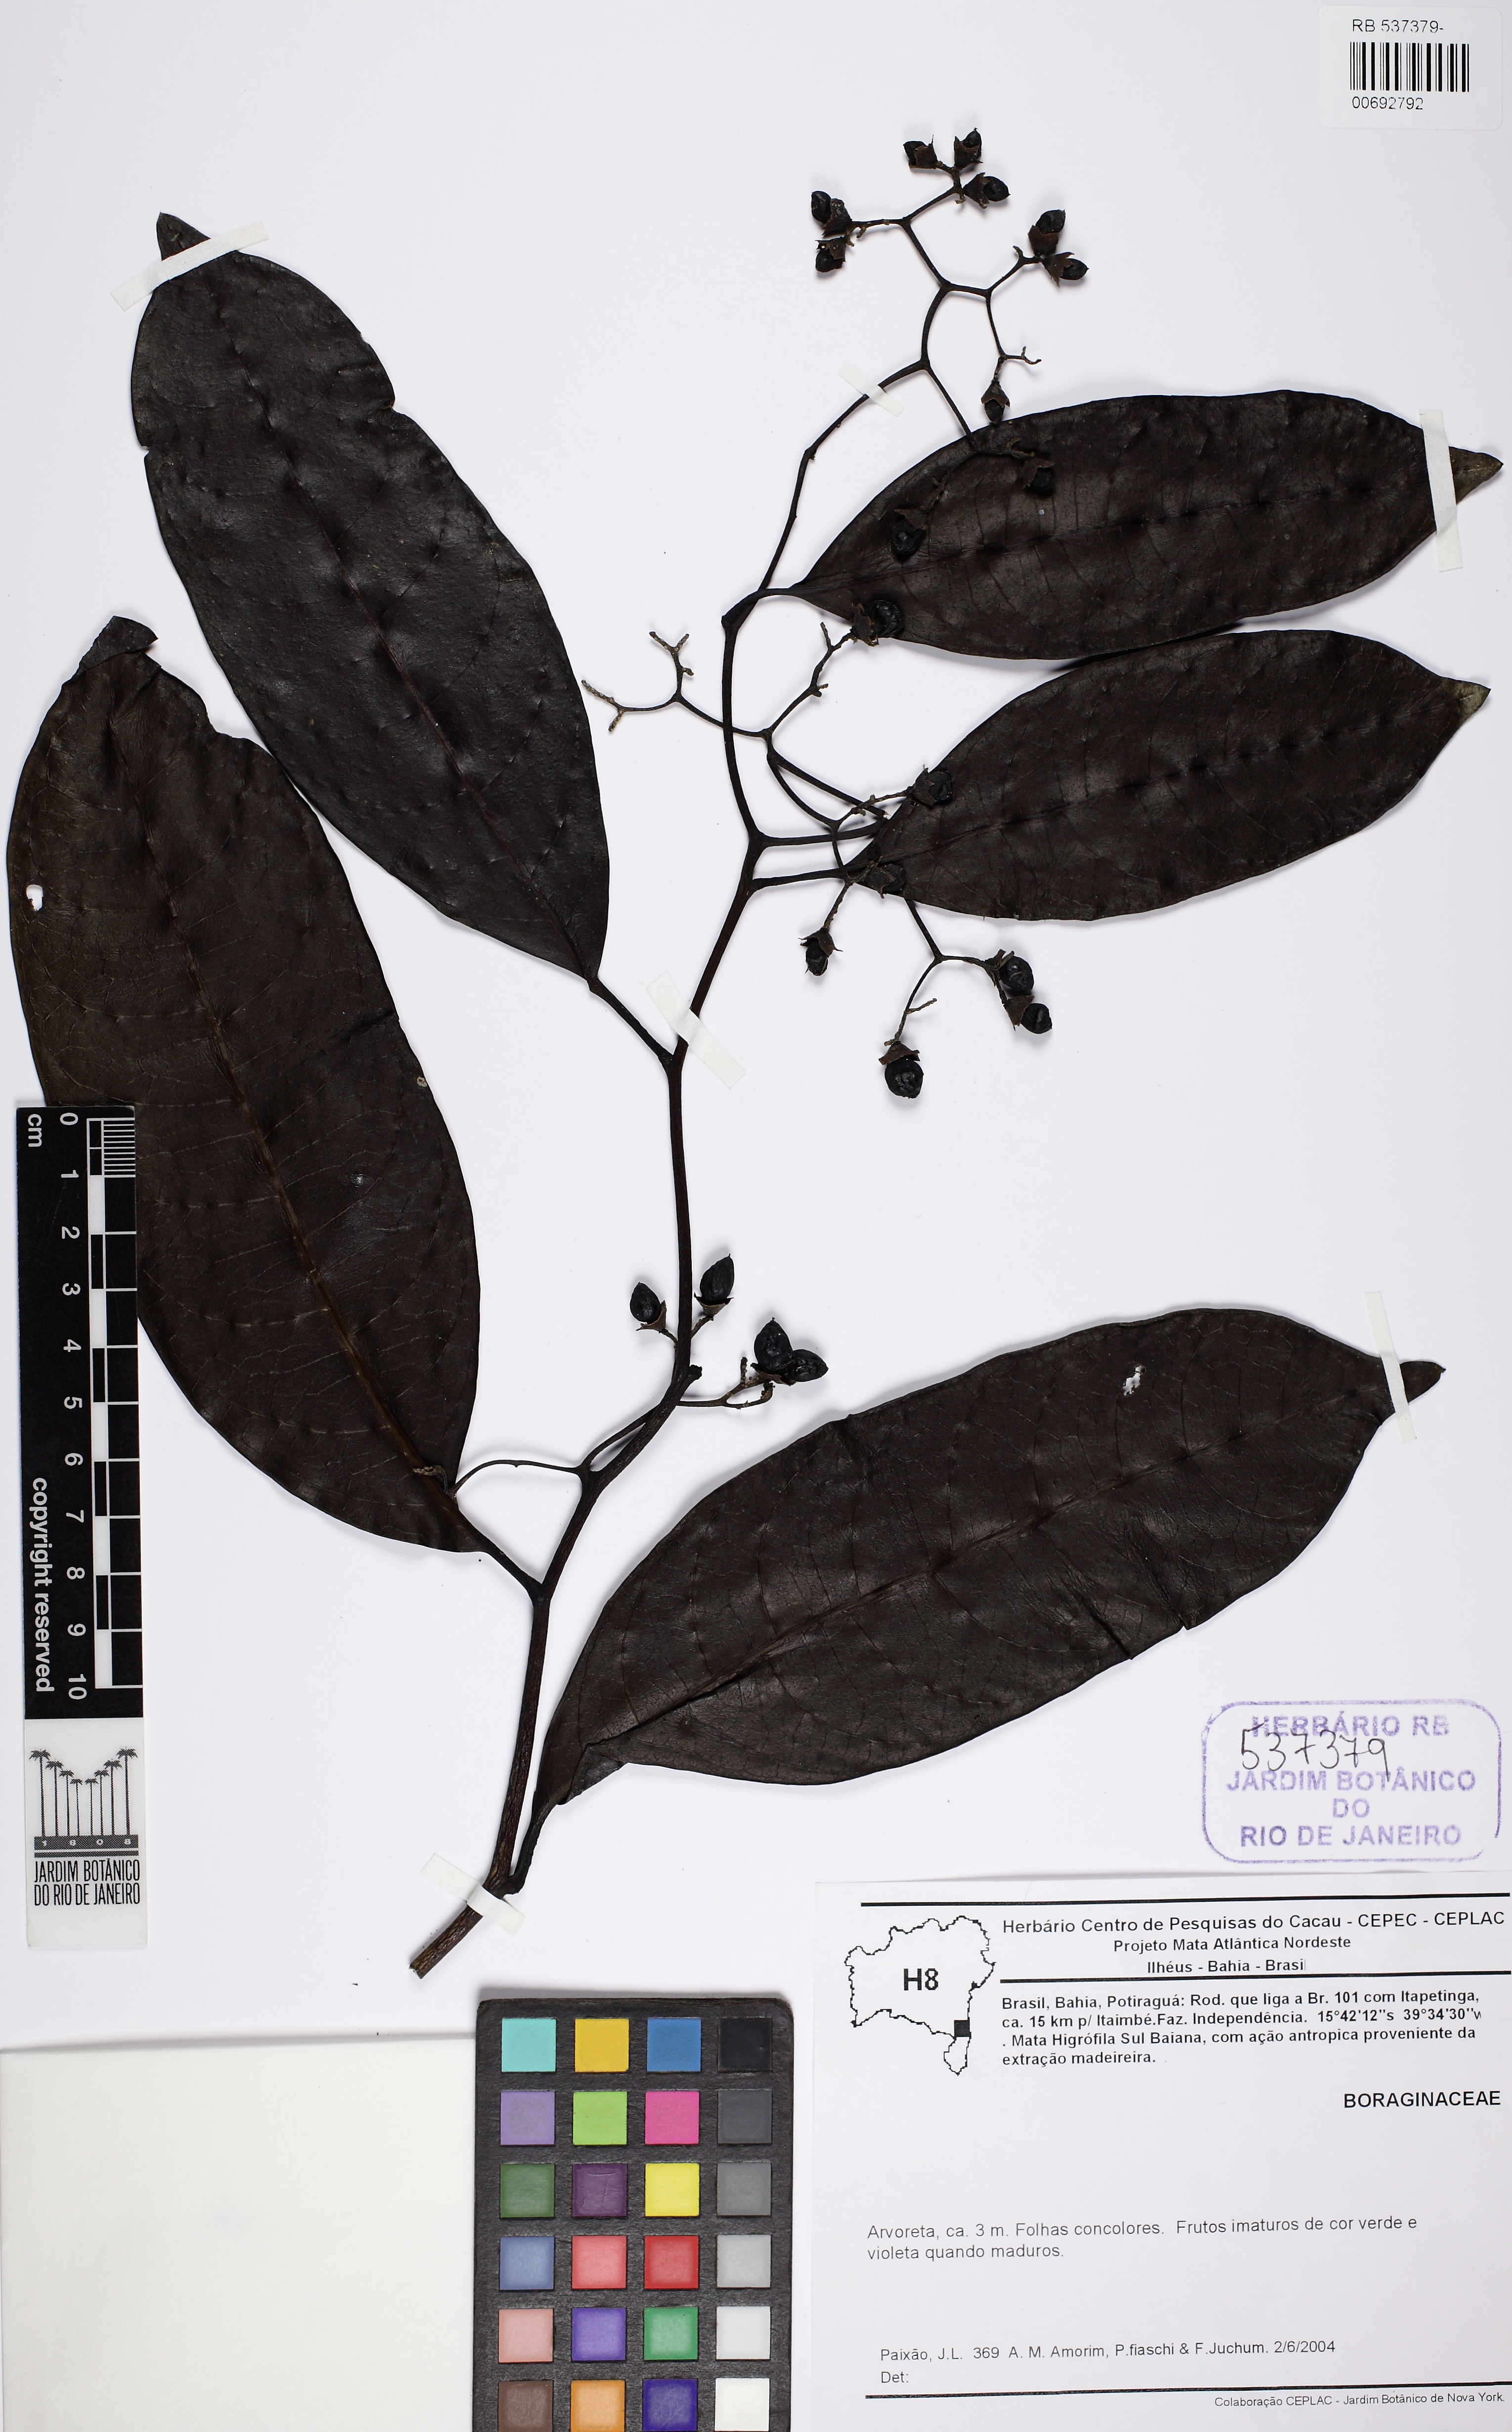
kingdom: Plantae
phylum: Tracheophyta
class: Magnoliopsida
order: Boraginales
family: Boraginaceae
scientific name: Boraginaceae
